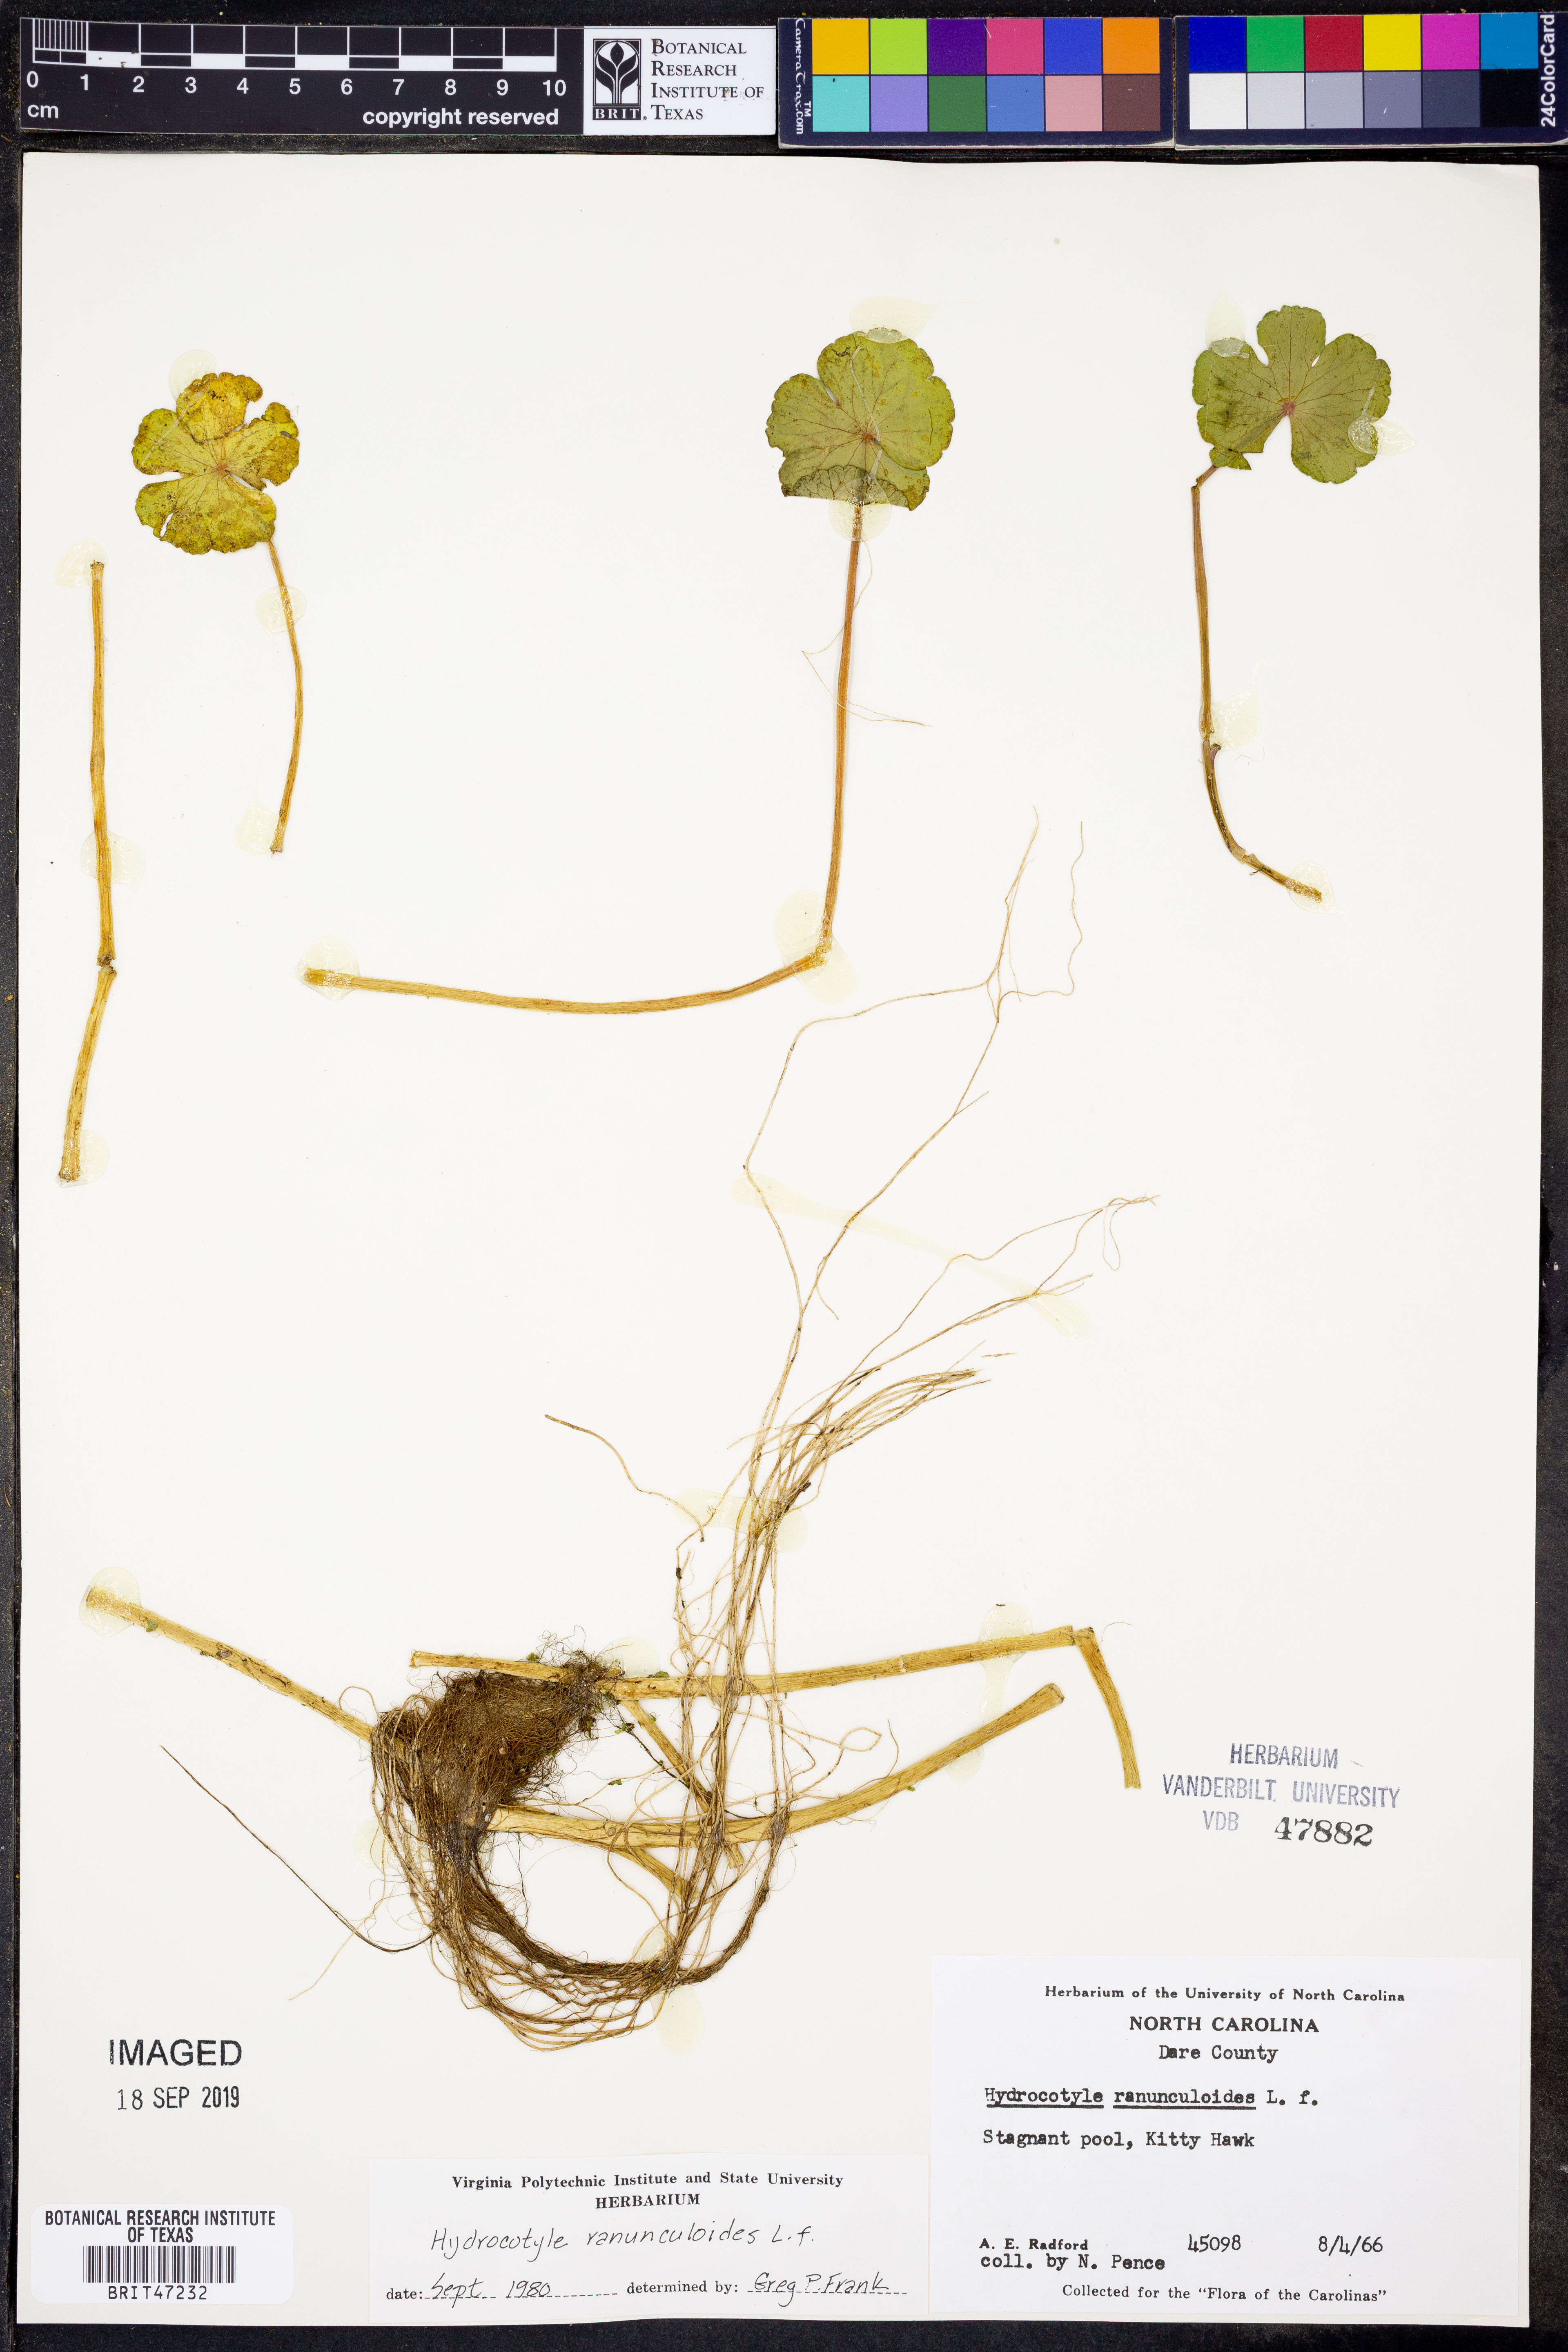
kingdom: Plantae
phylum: Tracheophyta
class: Magnoliopsida
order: Apiales
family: Araliaceae
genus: Hydrocotyle
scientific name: Hydrocotyle ranunculoides
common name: Floating pennywort
